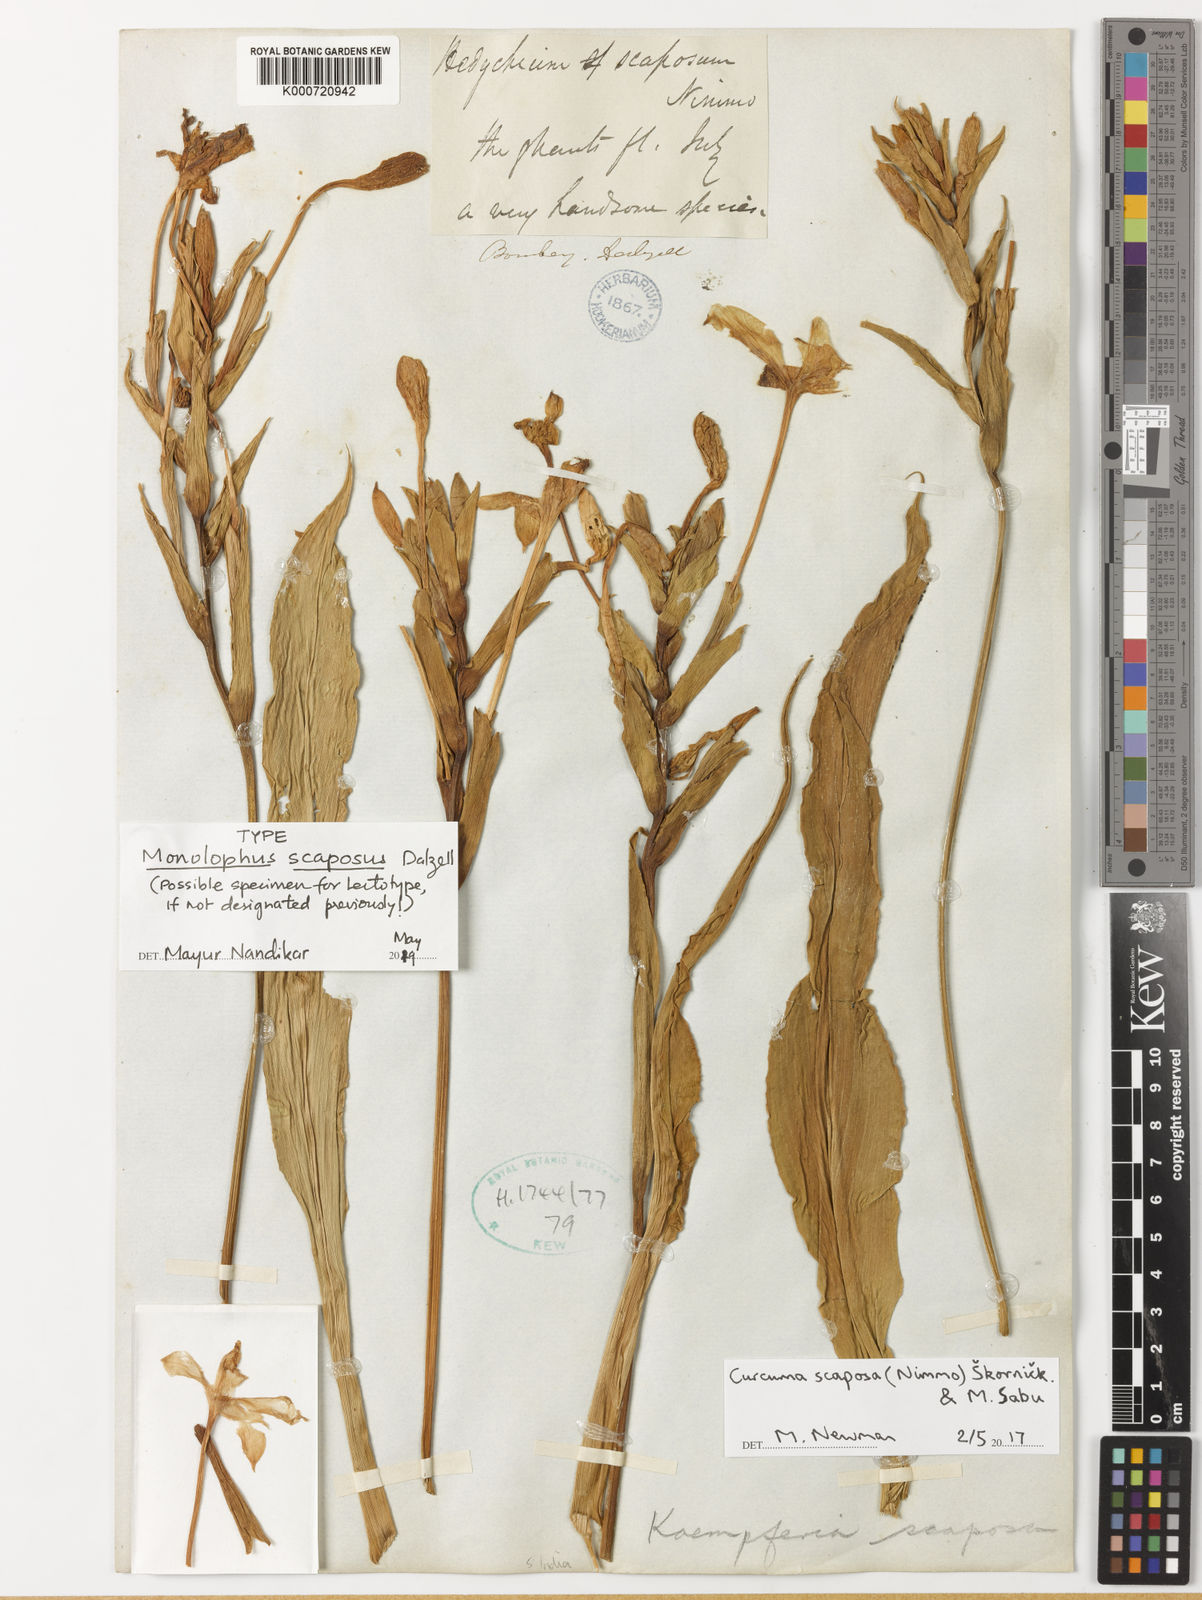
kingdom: Plantae
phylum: Tracheophyta
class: Liliopsida
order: Zingiberales
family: Zingiberaceae
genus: Curcuma
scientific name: Curcuma scaposa
